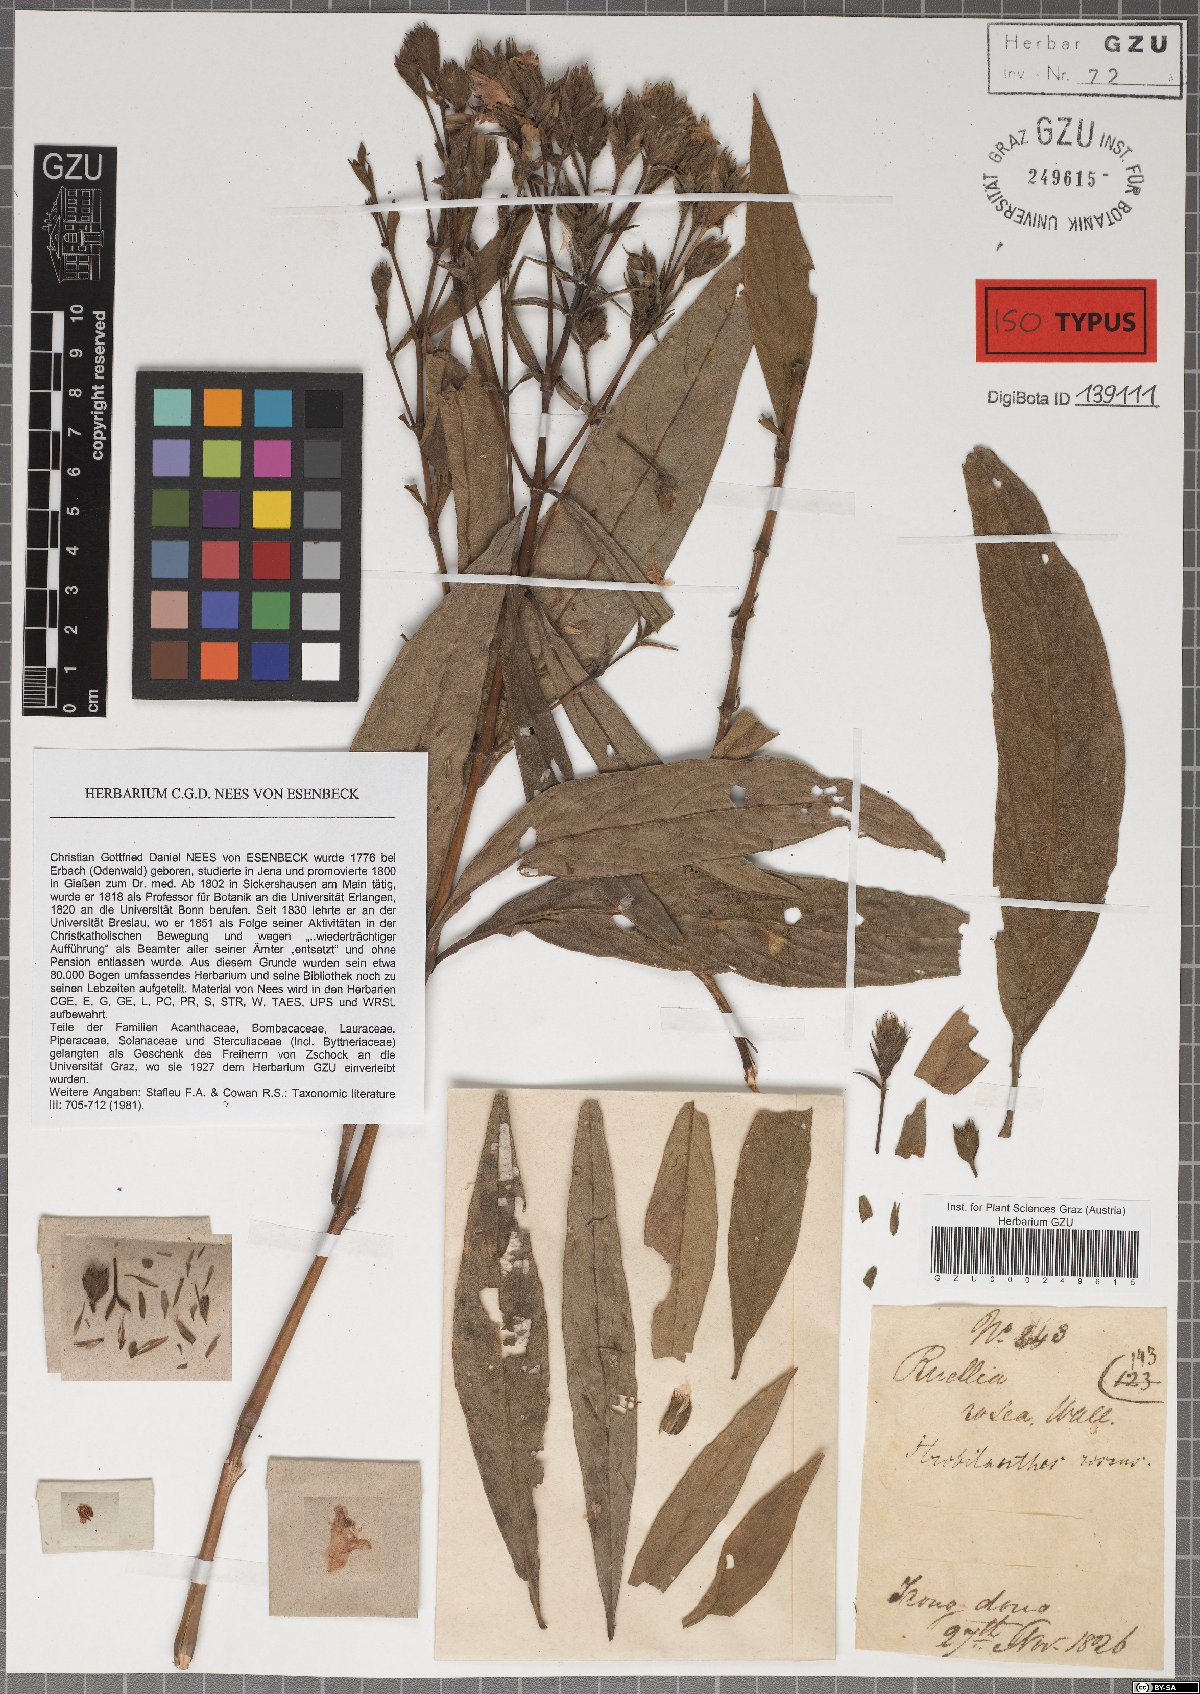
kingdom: Plantae
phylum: Tracheophyta
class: Magnoliopsida
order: Lamiales
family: Acanthaceae
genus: Strobilanthes
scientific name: Strobilanthes rosea
